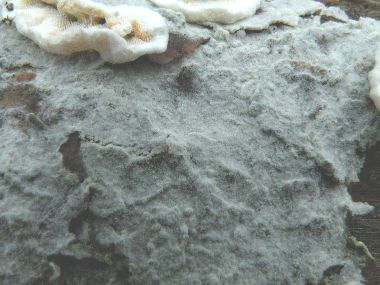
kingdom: Fungi
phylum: Basidiomycota
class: Agaricomycetes
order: Cantharellales
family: Botryobasidiaceae
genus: Botryobasidium
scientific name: Botryobasidium vagum
